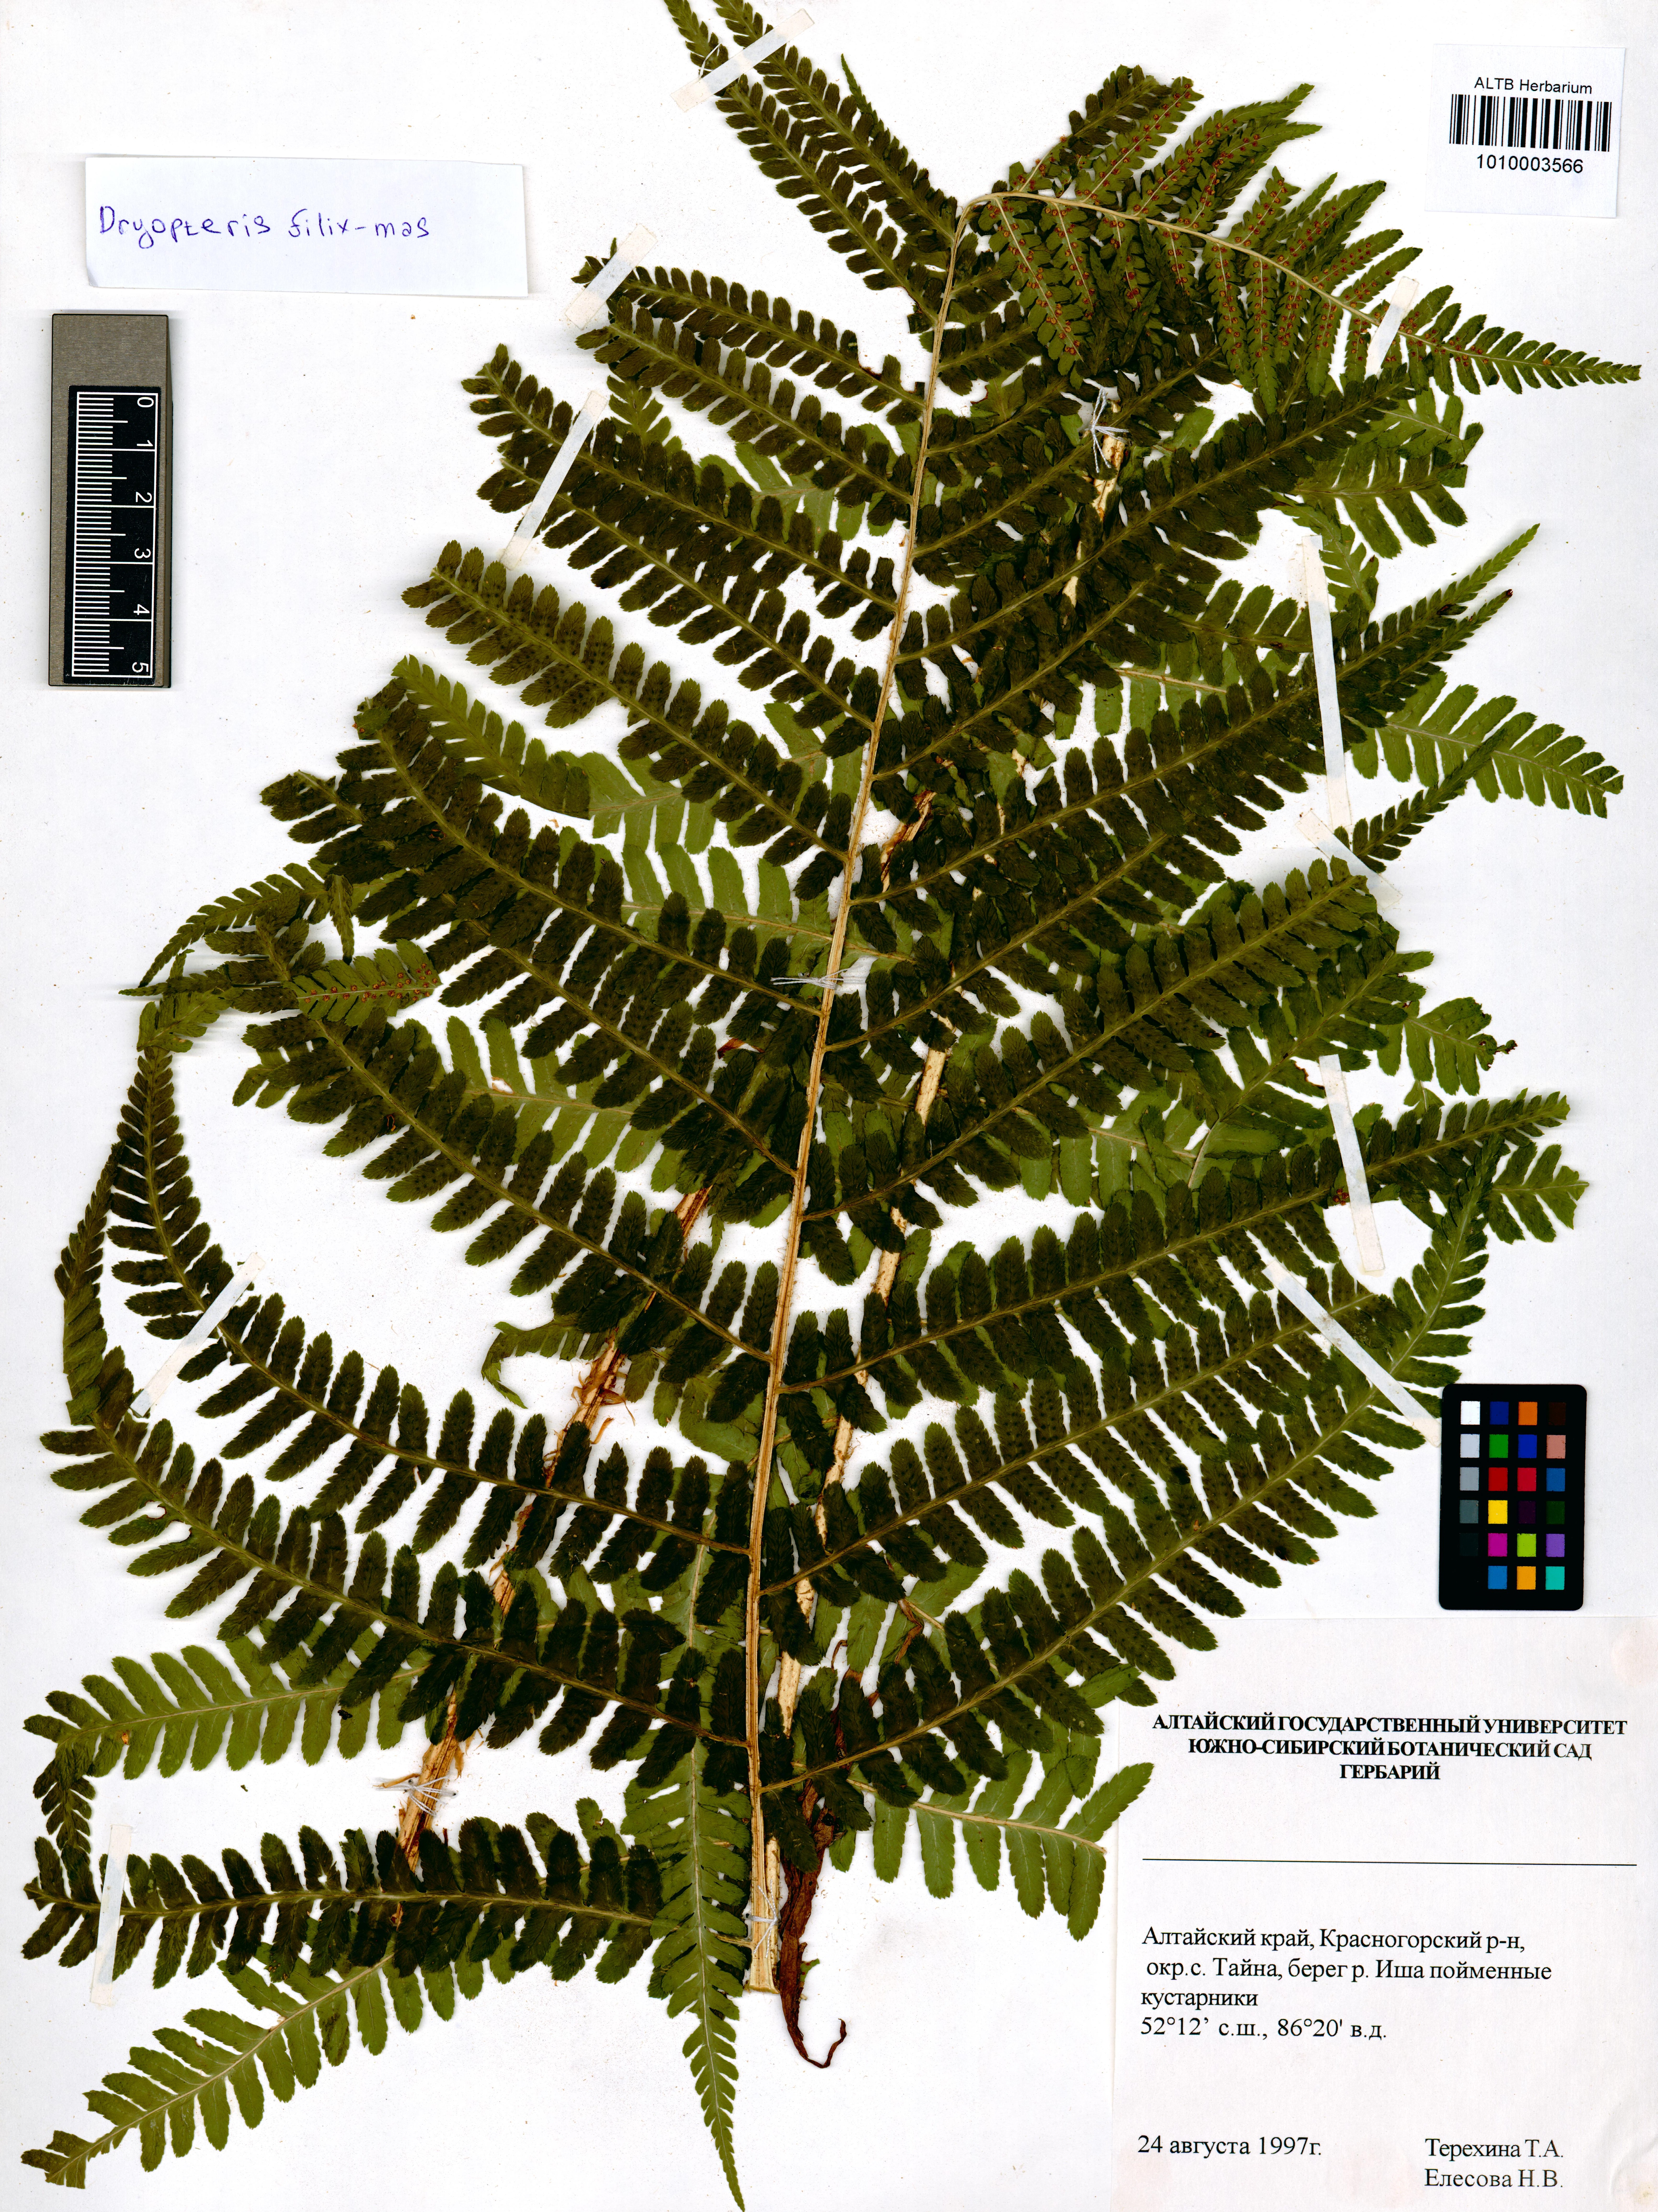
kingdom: Plantae
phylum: Tracheophyta
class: Polypodiopsida
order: Polypodiales
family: Dryopteridaceae
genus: Dryopteris
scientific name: Dryopteris filix-mas
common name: Male fern
